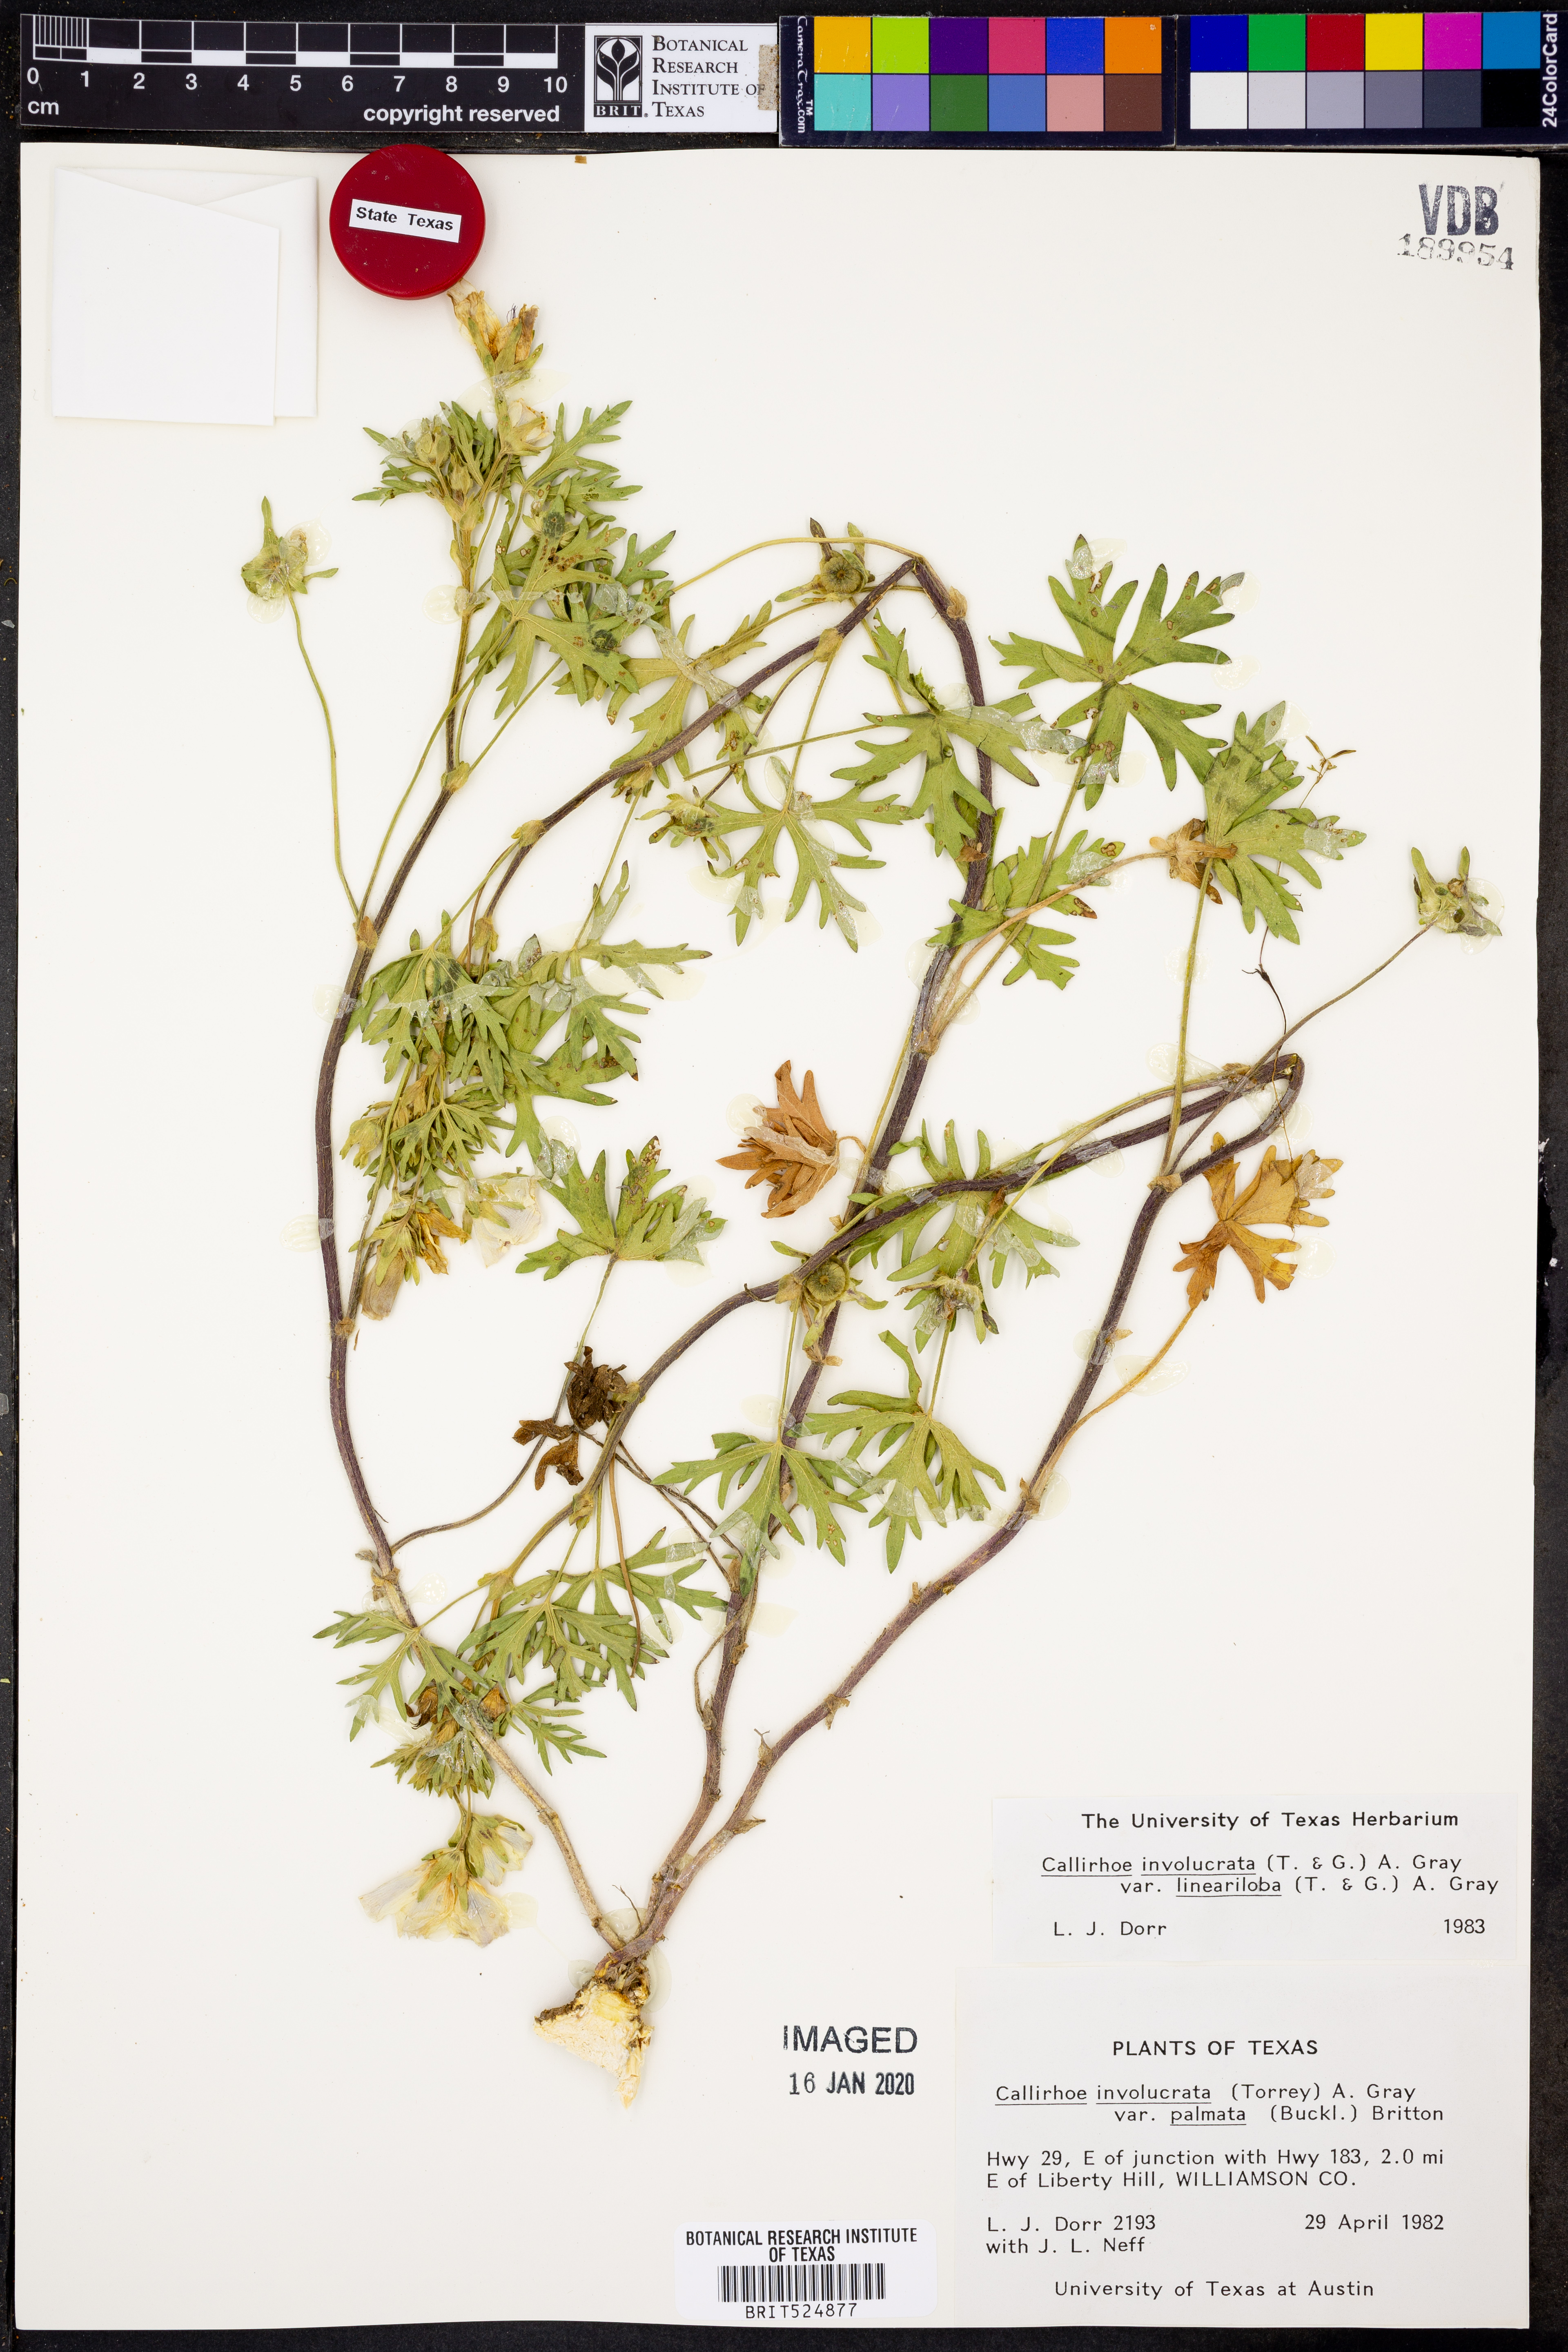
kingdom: Plantae
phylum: Tracheophyta
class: Magnoliopsida
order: Malvales
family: Malvaceae
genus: Callirhoe
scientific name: Callirhoe involucrata
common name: Purple poppy-mallow
